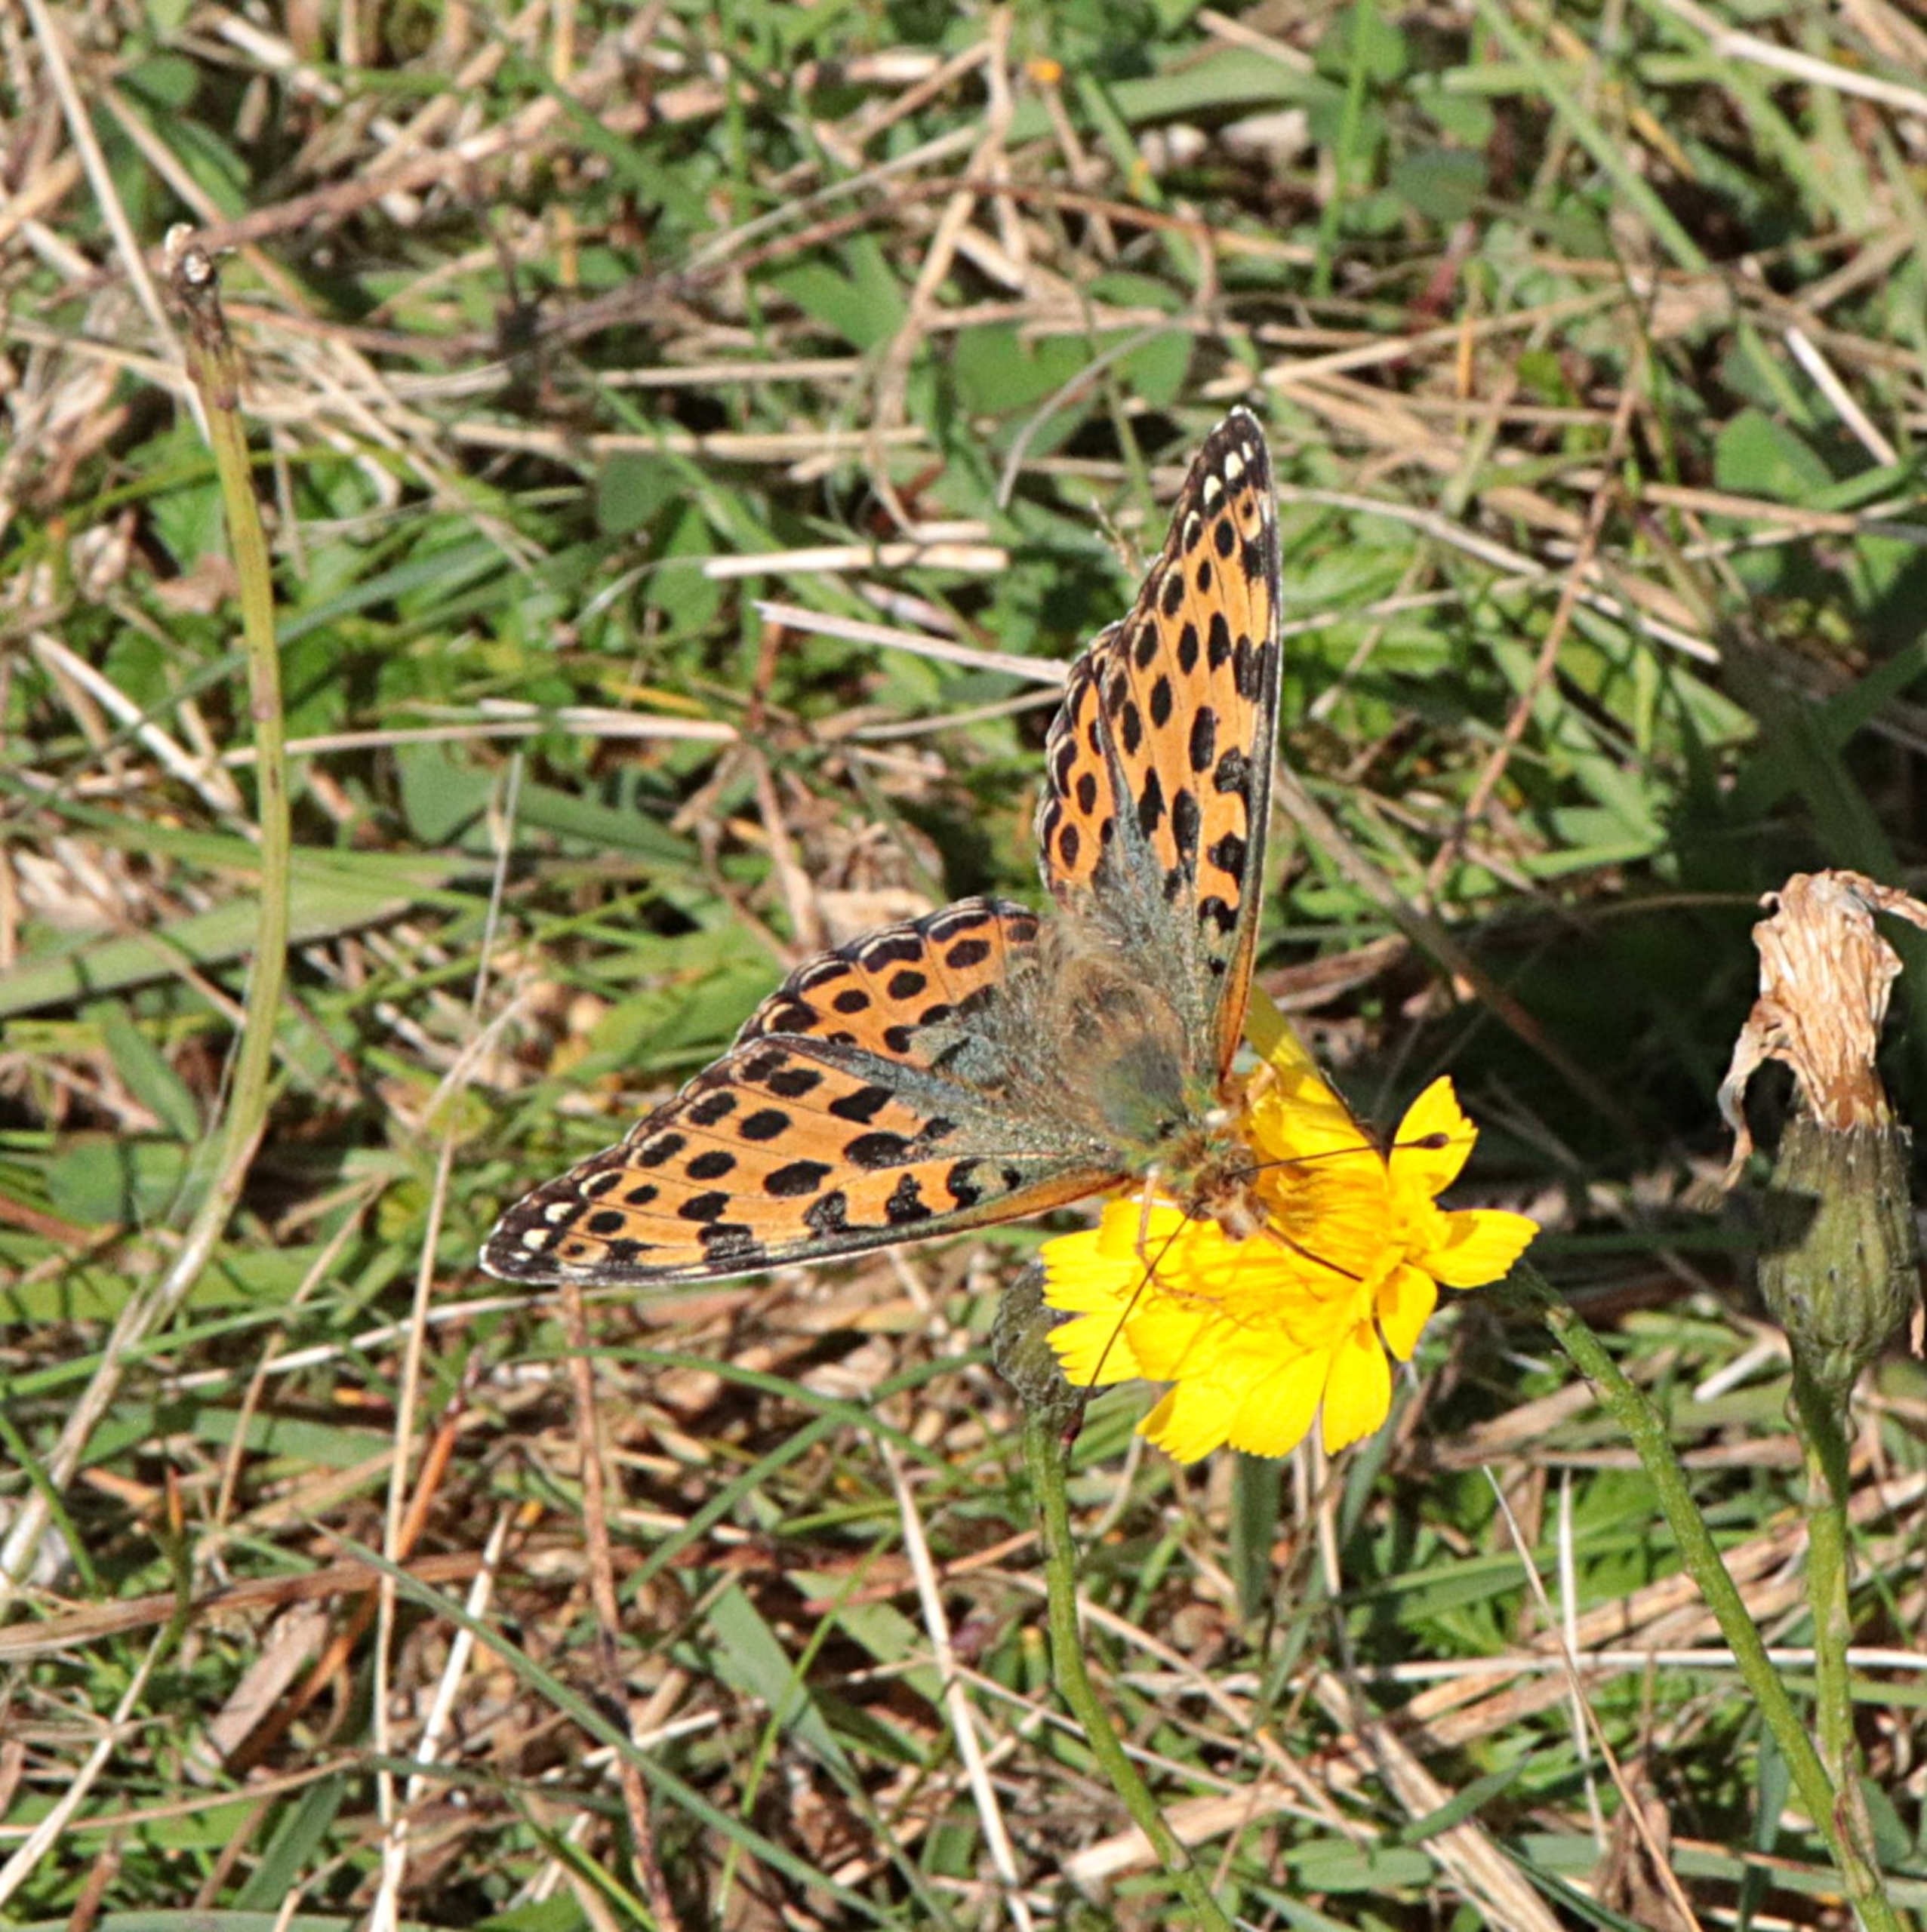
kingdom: Animalia
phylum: Arthropoda
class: Insecta
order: Lepidoptera
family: Nymphalidae
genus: Issoria
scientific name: Issoria lathonia
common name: Storplettet perlemorsommerfugl
